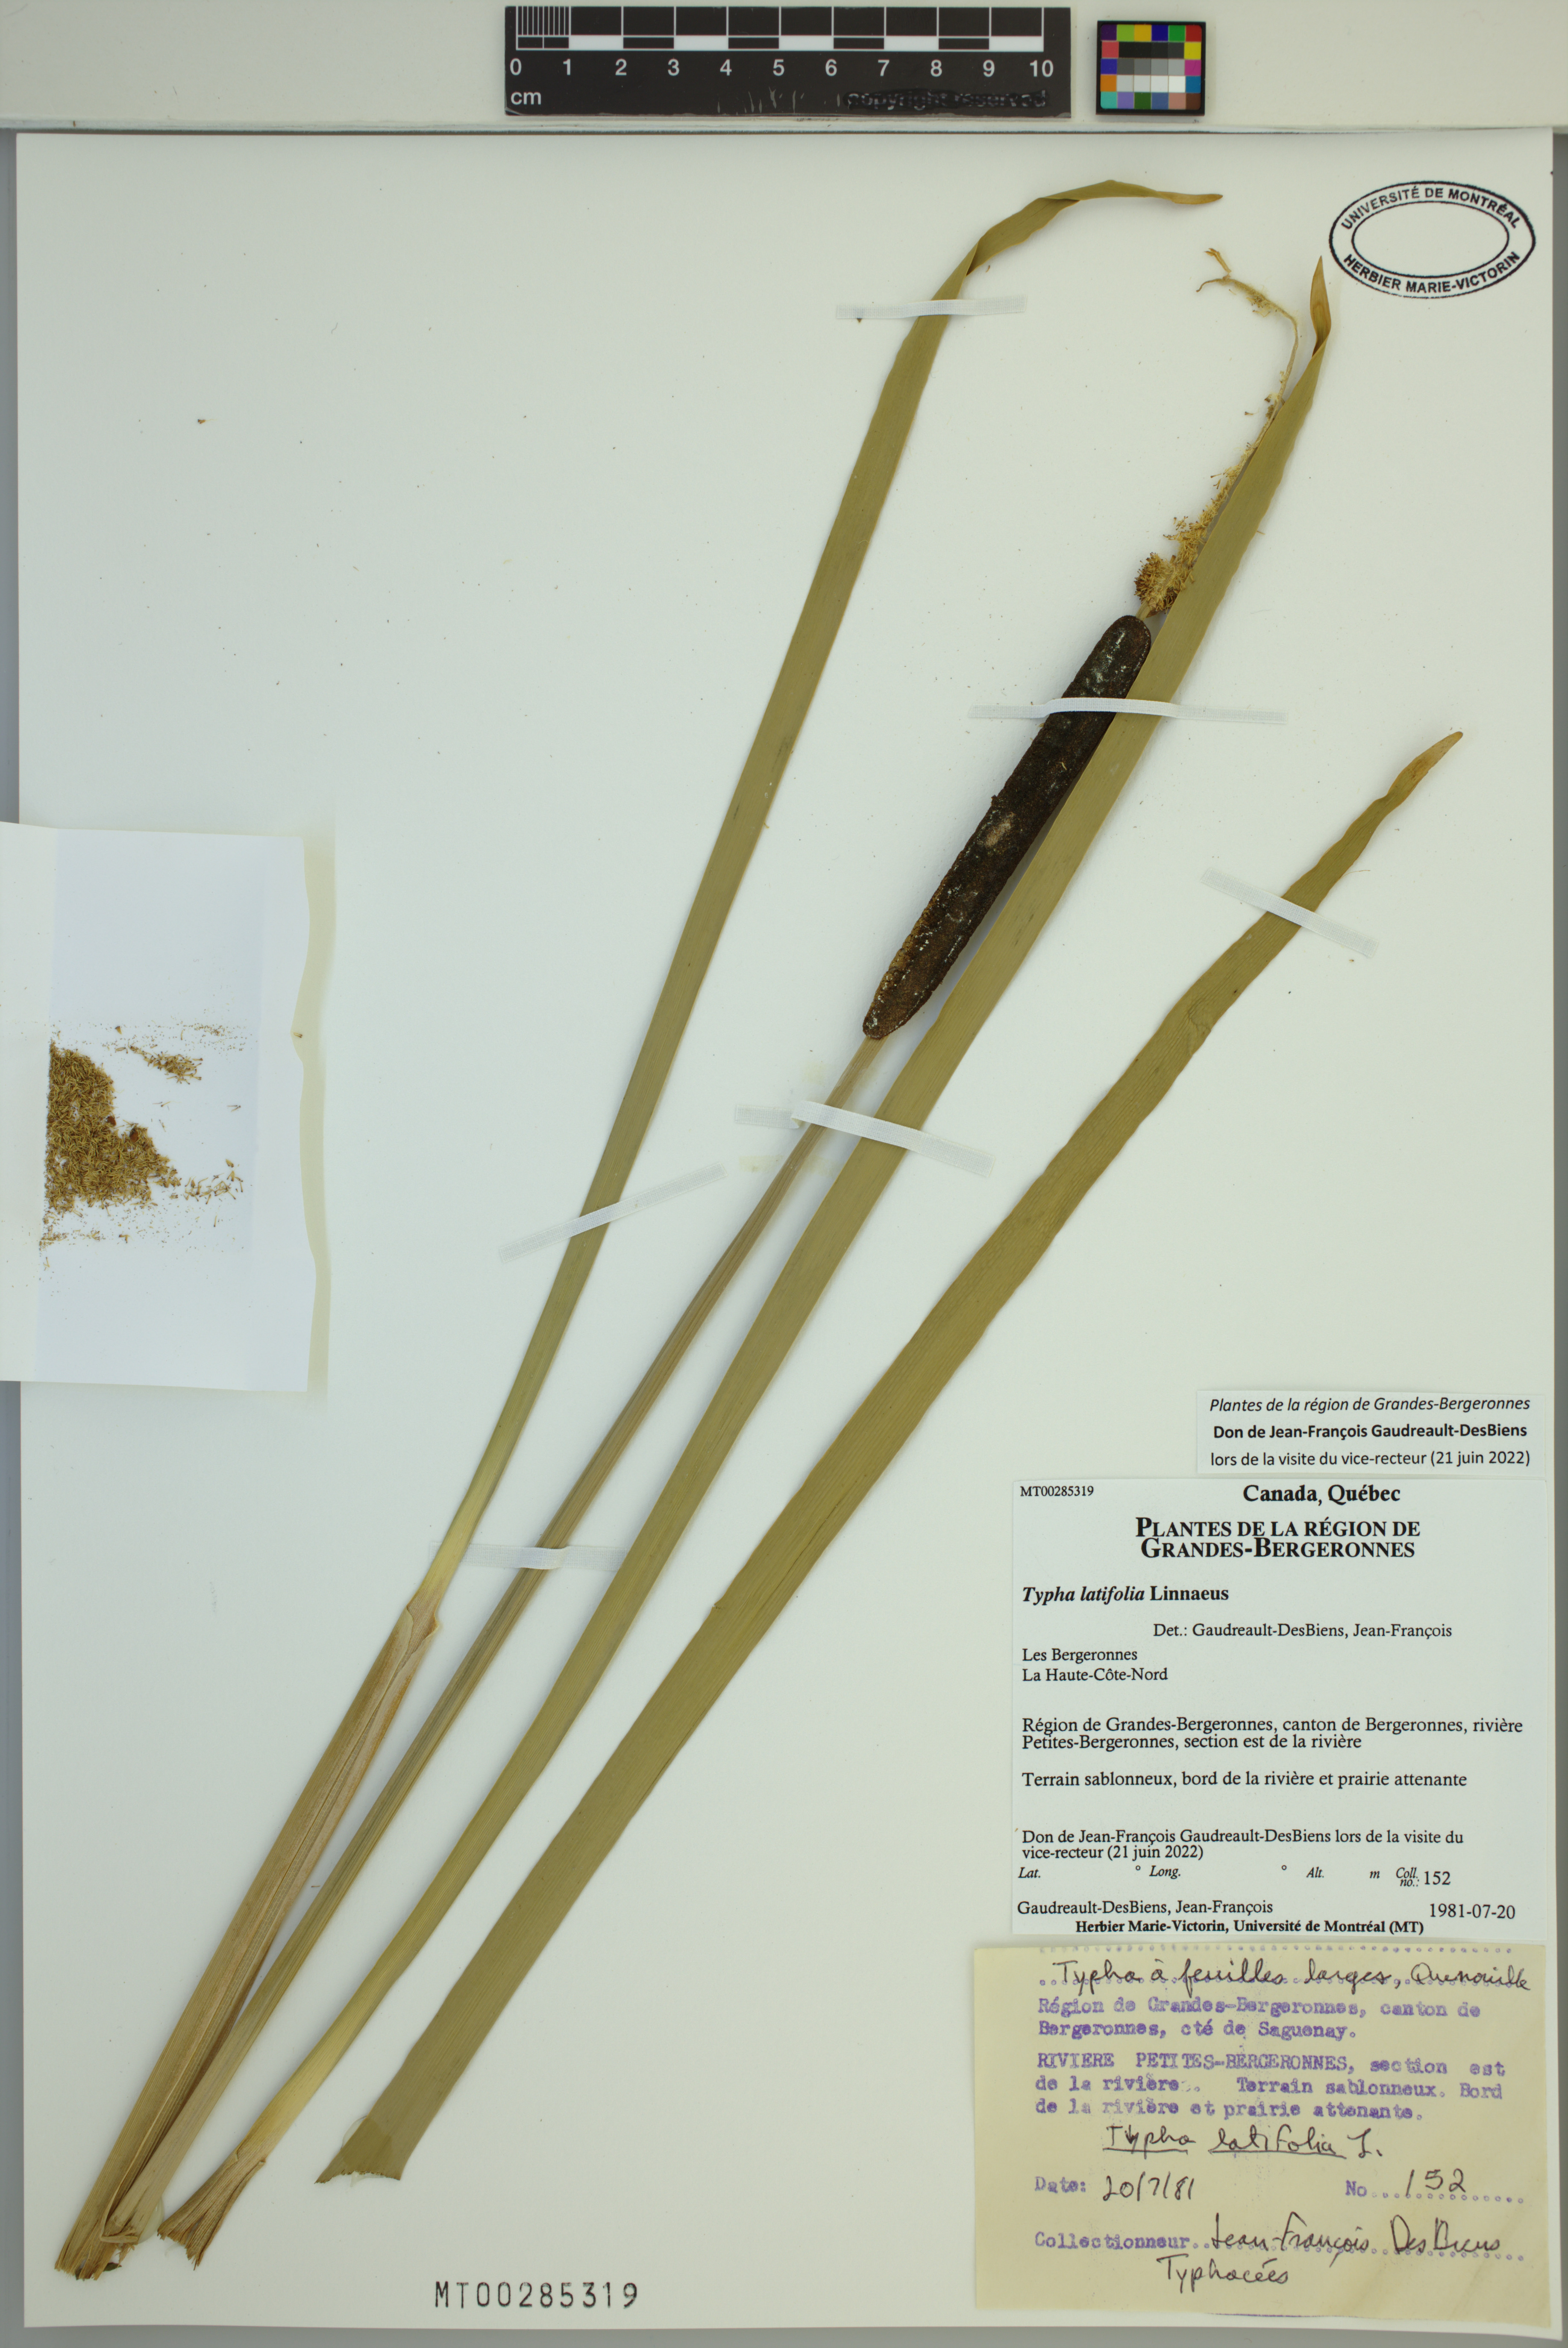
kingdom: Plantae
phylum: Tracheophyta
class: Liliopsida
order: Poales
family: Typhaceae
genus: Typha
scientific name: Typha latifolia
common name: Broadleaf cattail
